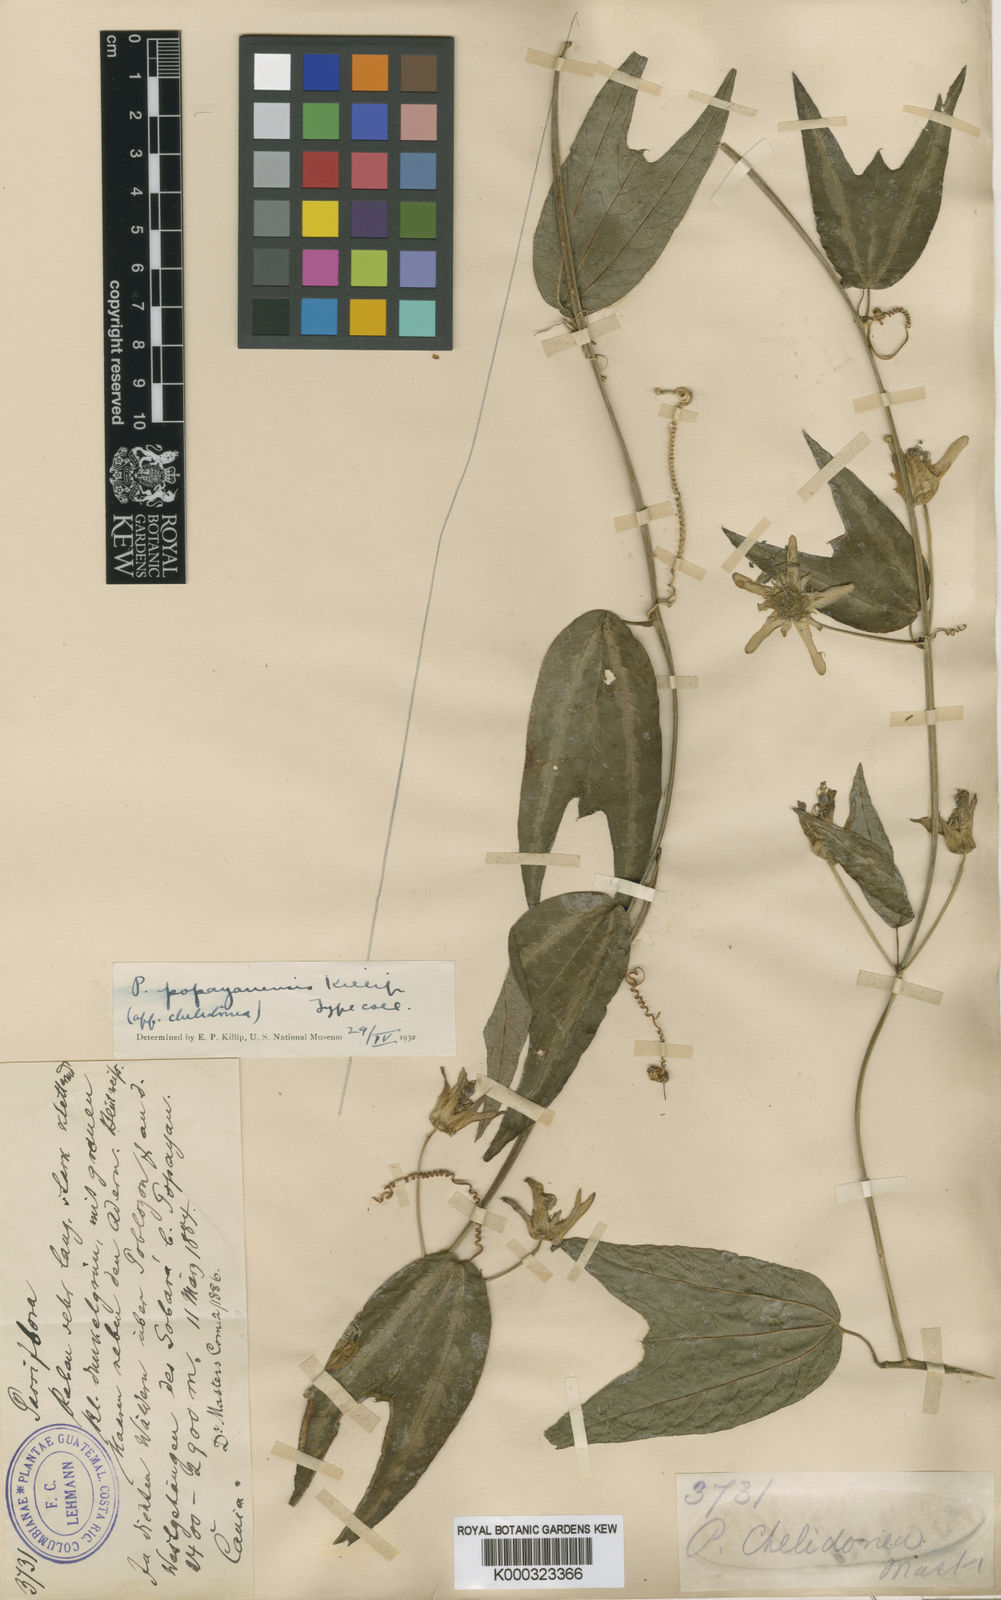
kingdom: Plantae
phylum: Tracheophyta
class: Magnoliopsida
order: Malpighiales
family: Passifloraceae
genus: Passiflora
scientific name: Passiflora popayanensis
